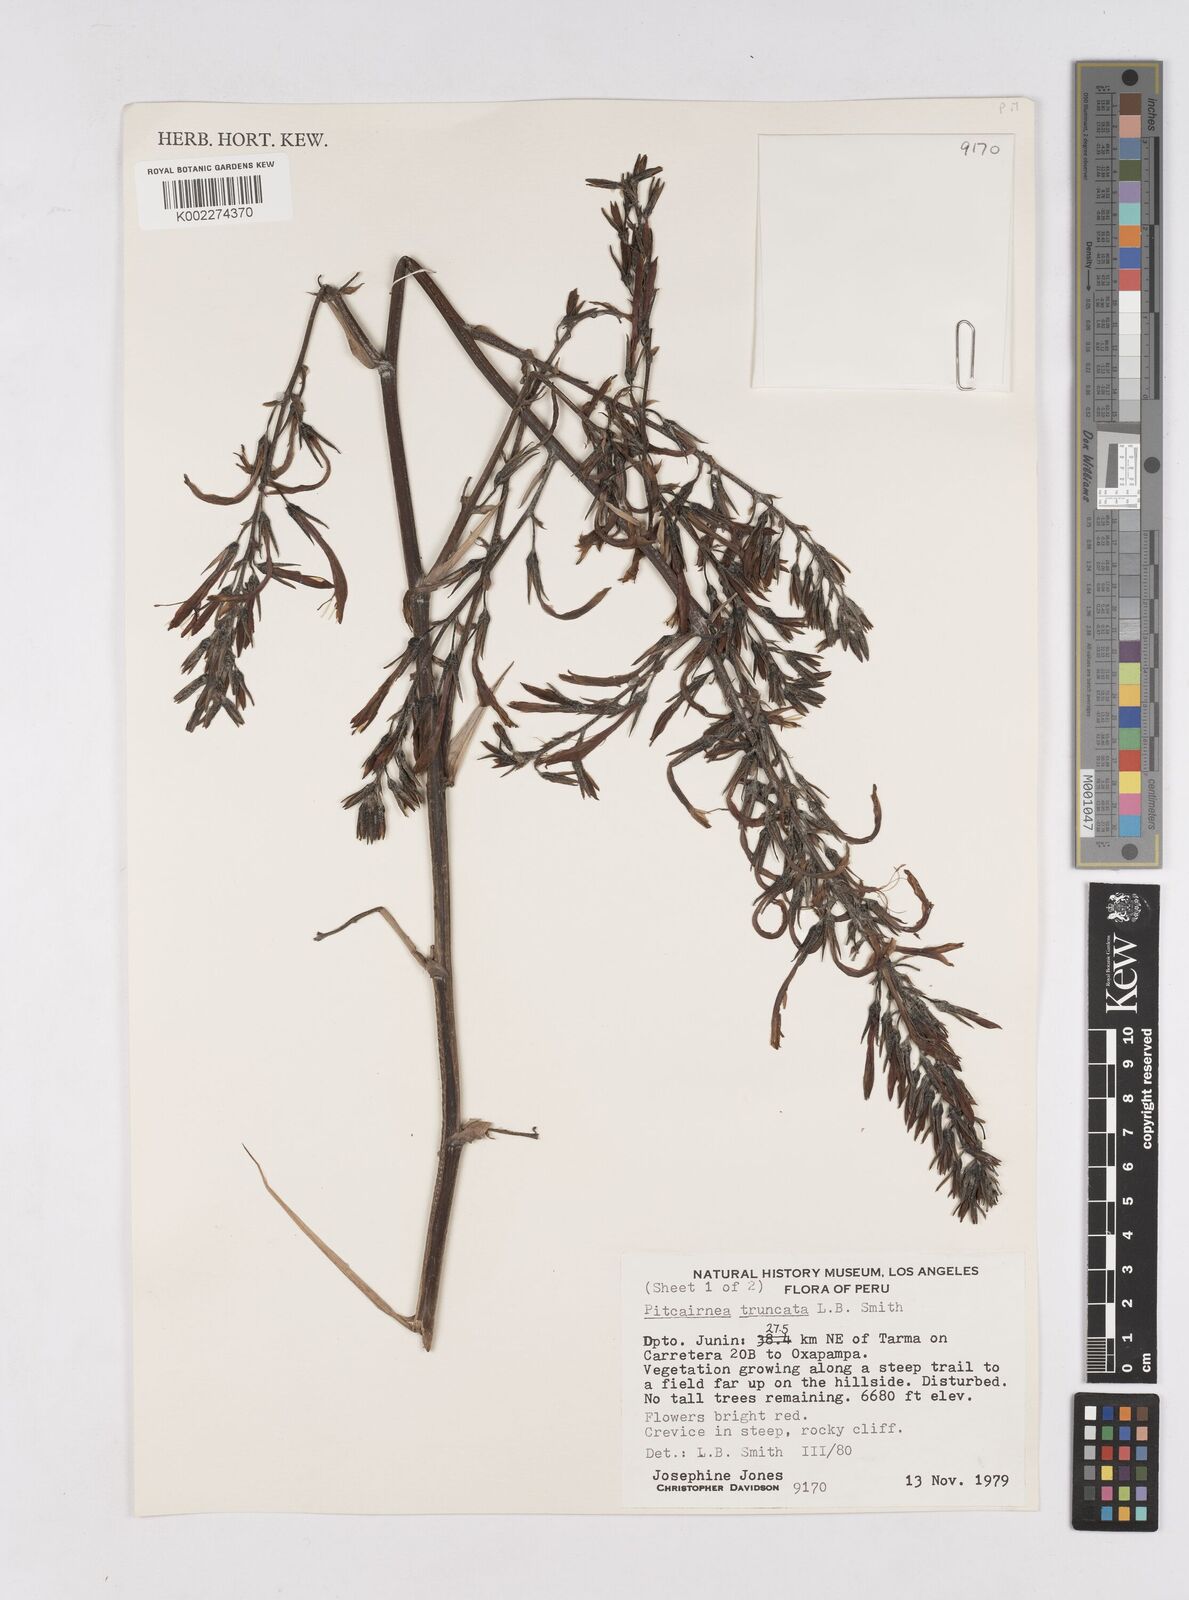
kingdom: Plantae
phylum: Tracheophyta
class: Liliopsida
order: Poales
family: Bromeliaceae
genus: Pitcairnia
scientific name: Pitcairnia truncata
